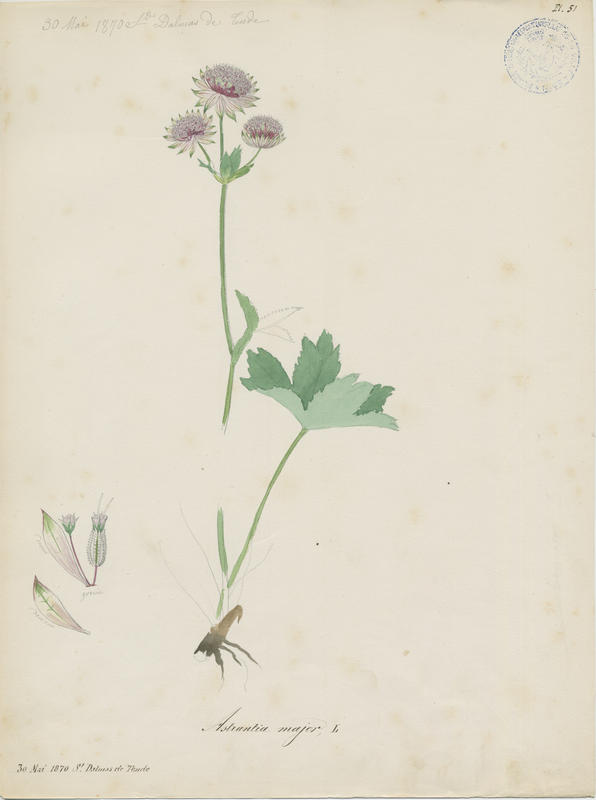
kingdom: Plantae
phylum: Tracheophyta
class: Magnoliopsida
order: Apiales
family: Apiaceae
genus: Astrantia
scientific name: Astrantia major
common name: Greater masterwort
